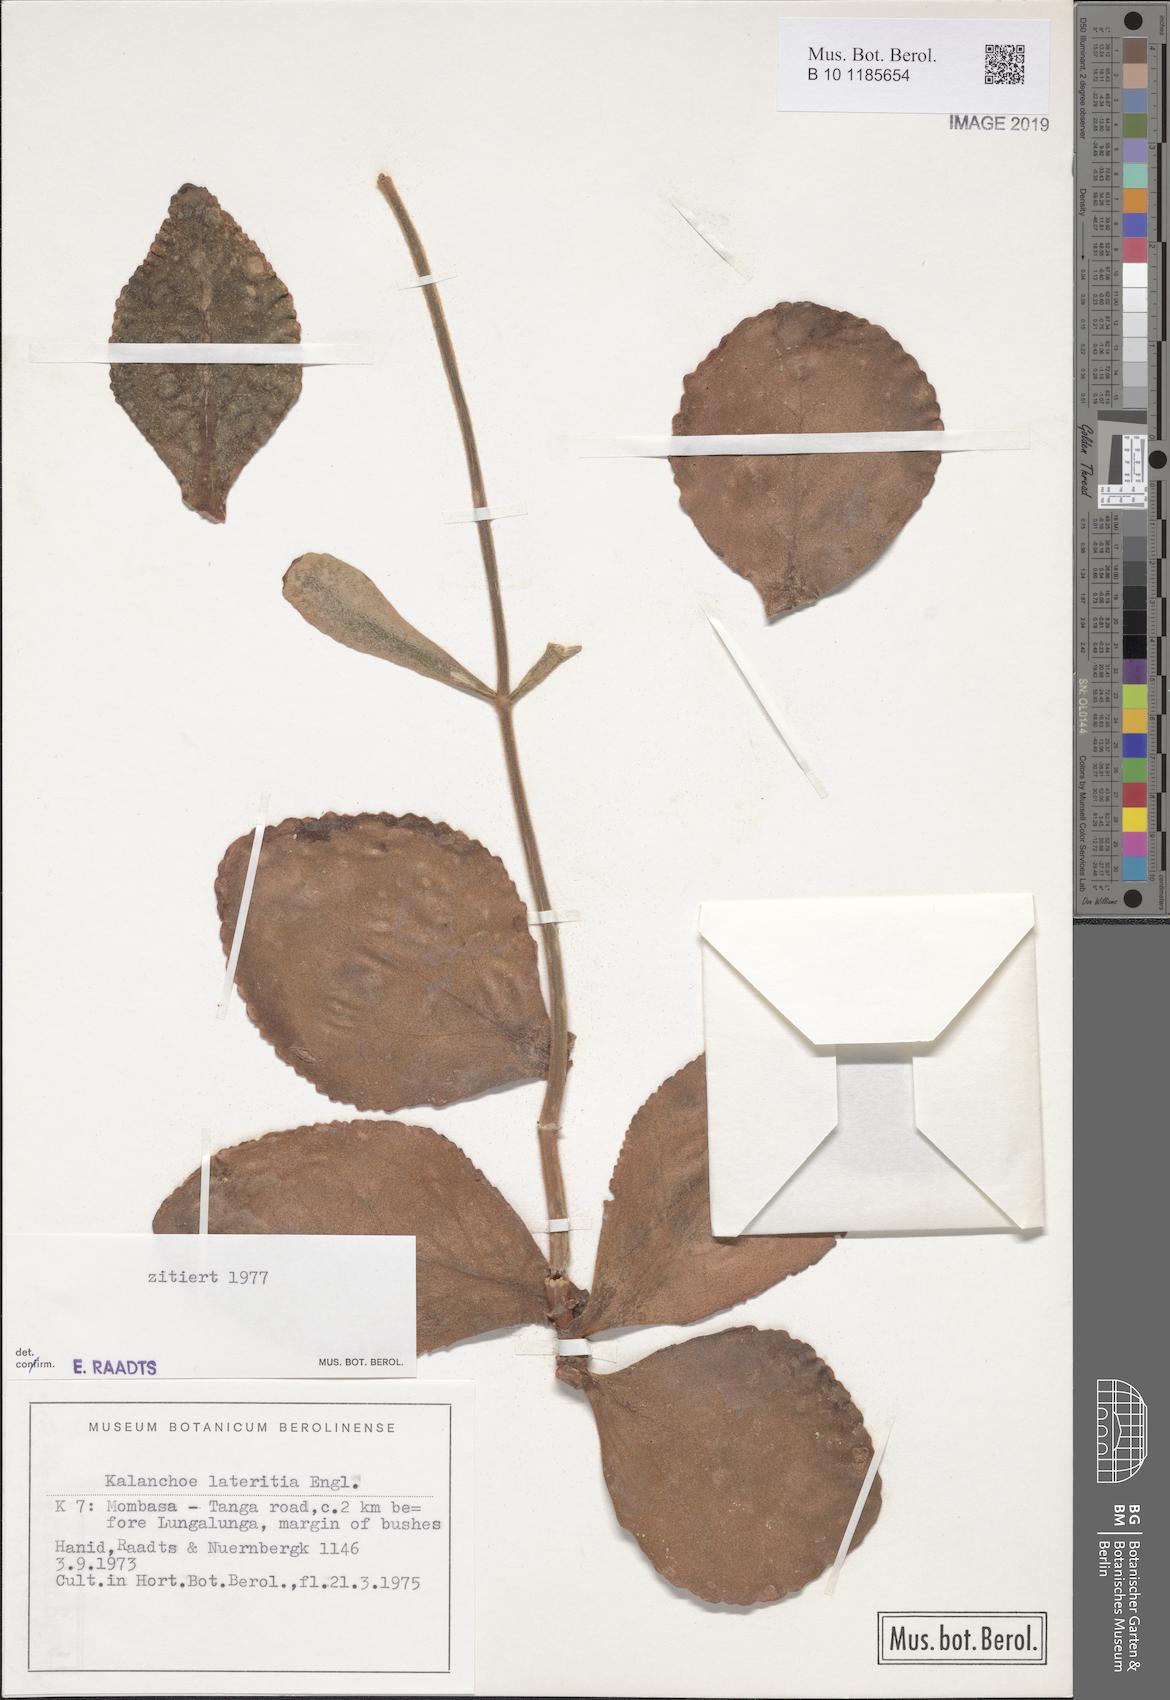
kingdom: Plantae
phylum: Tracheophyta
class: Magnoliopsida
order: Saxifragales
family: Crassulaceae
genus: Kalanchoe
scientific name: Kalanchoe lateritia
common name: Kalanchoe
